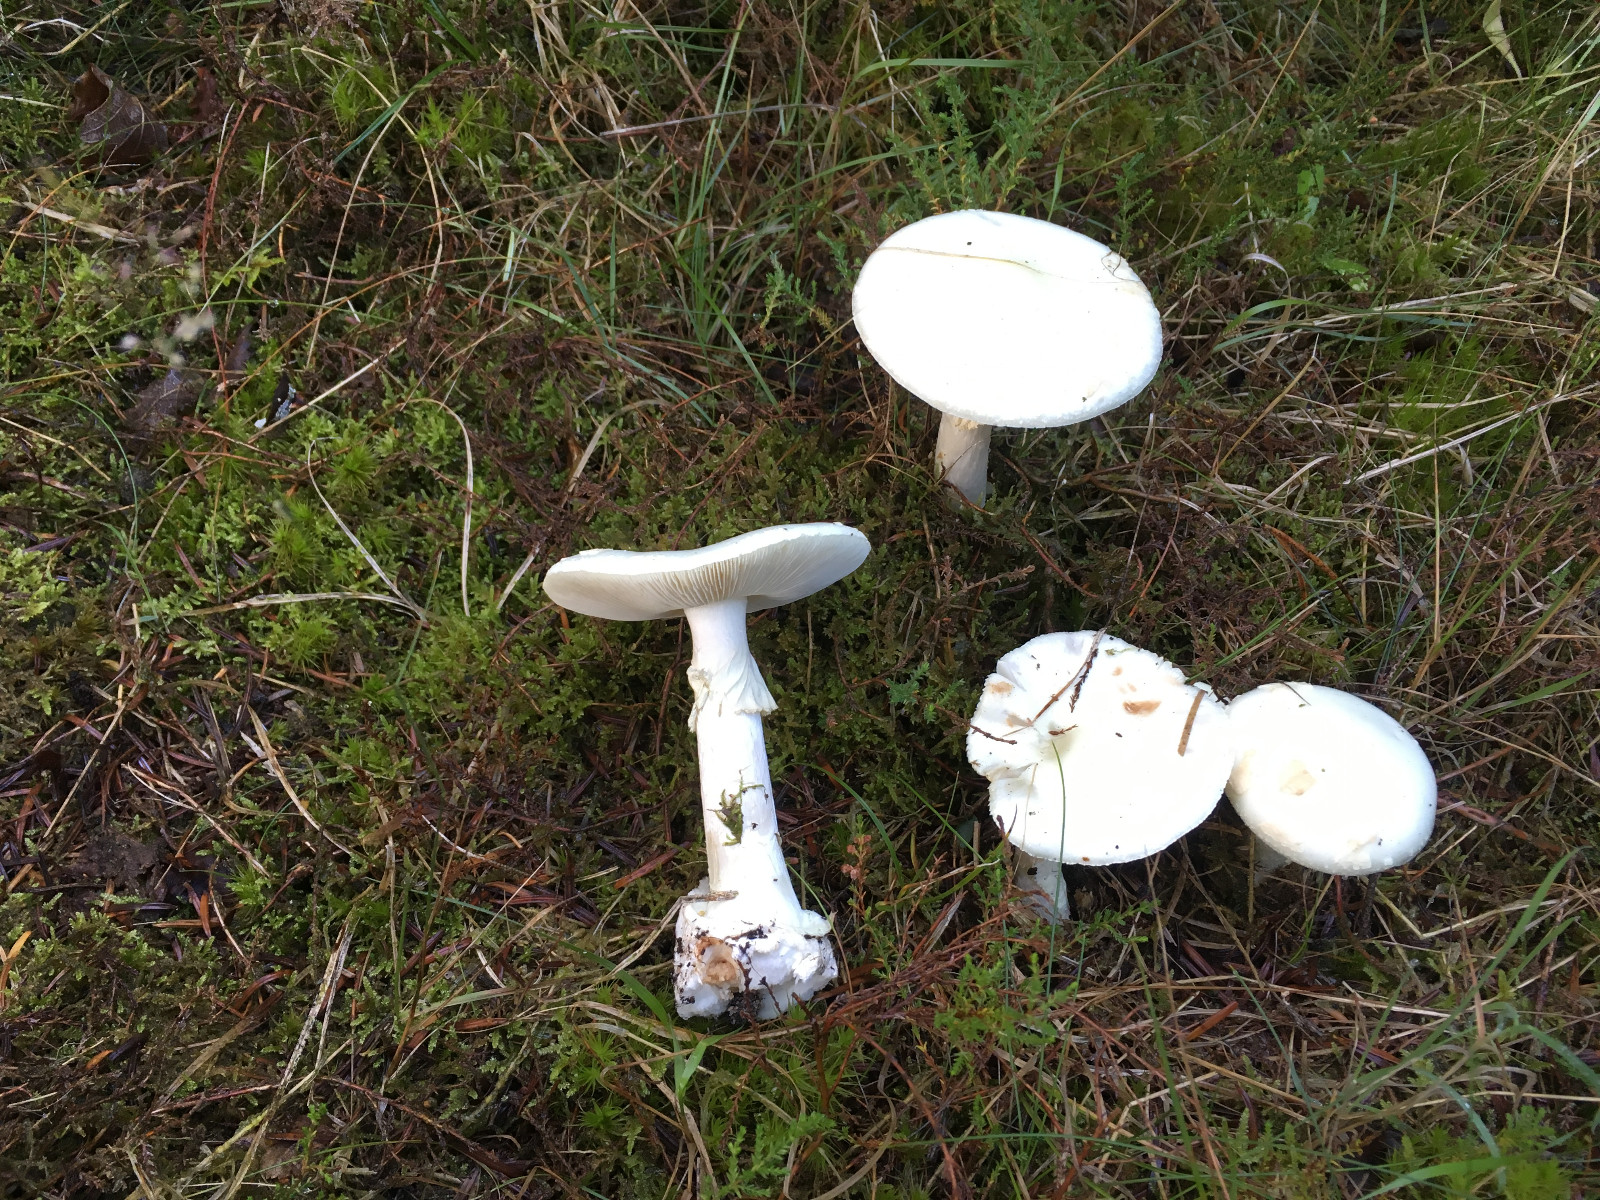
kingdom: Fungi
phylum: Basidiomycota
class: Agaricomycetes
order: Agaricales
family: Amanitaceae
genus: Amanita
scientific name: Amanita citrina
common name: False death-cap
